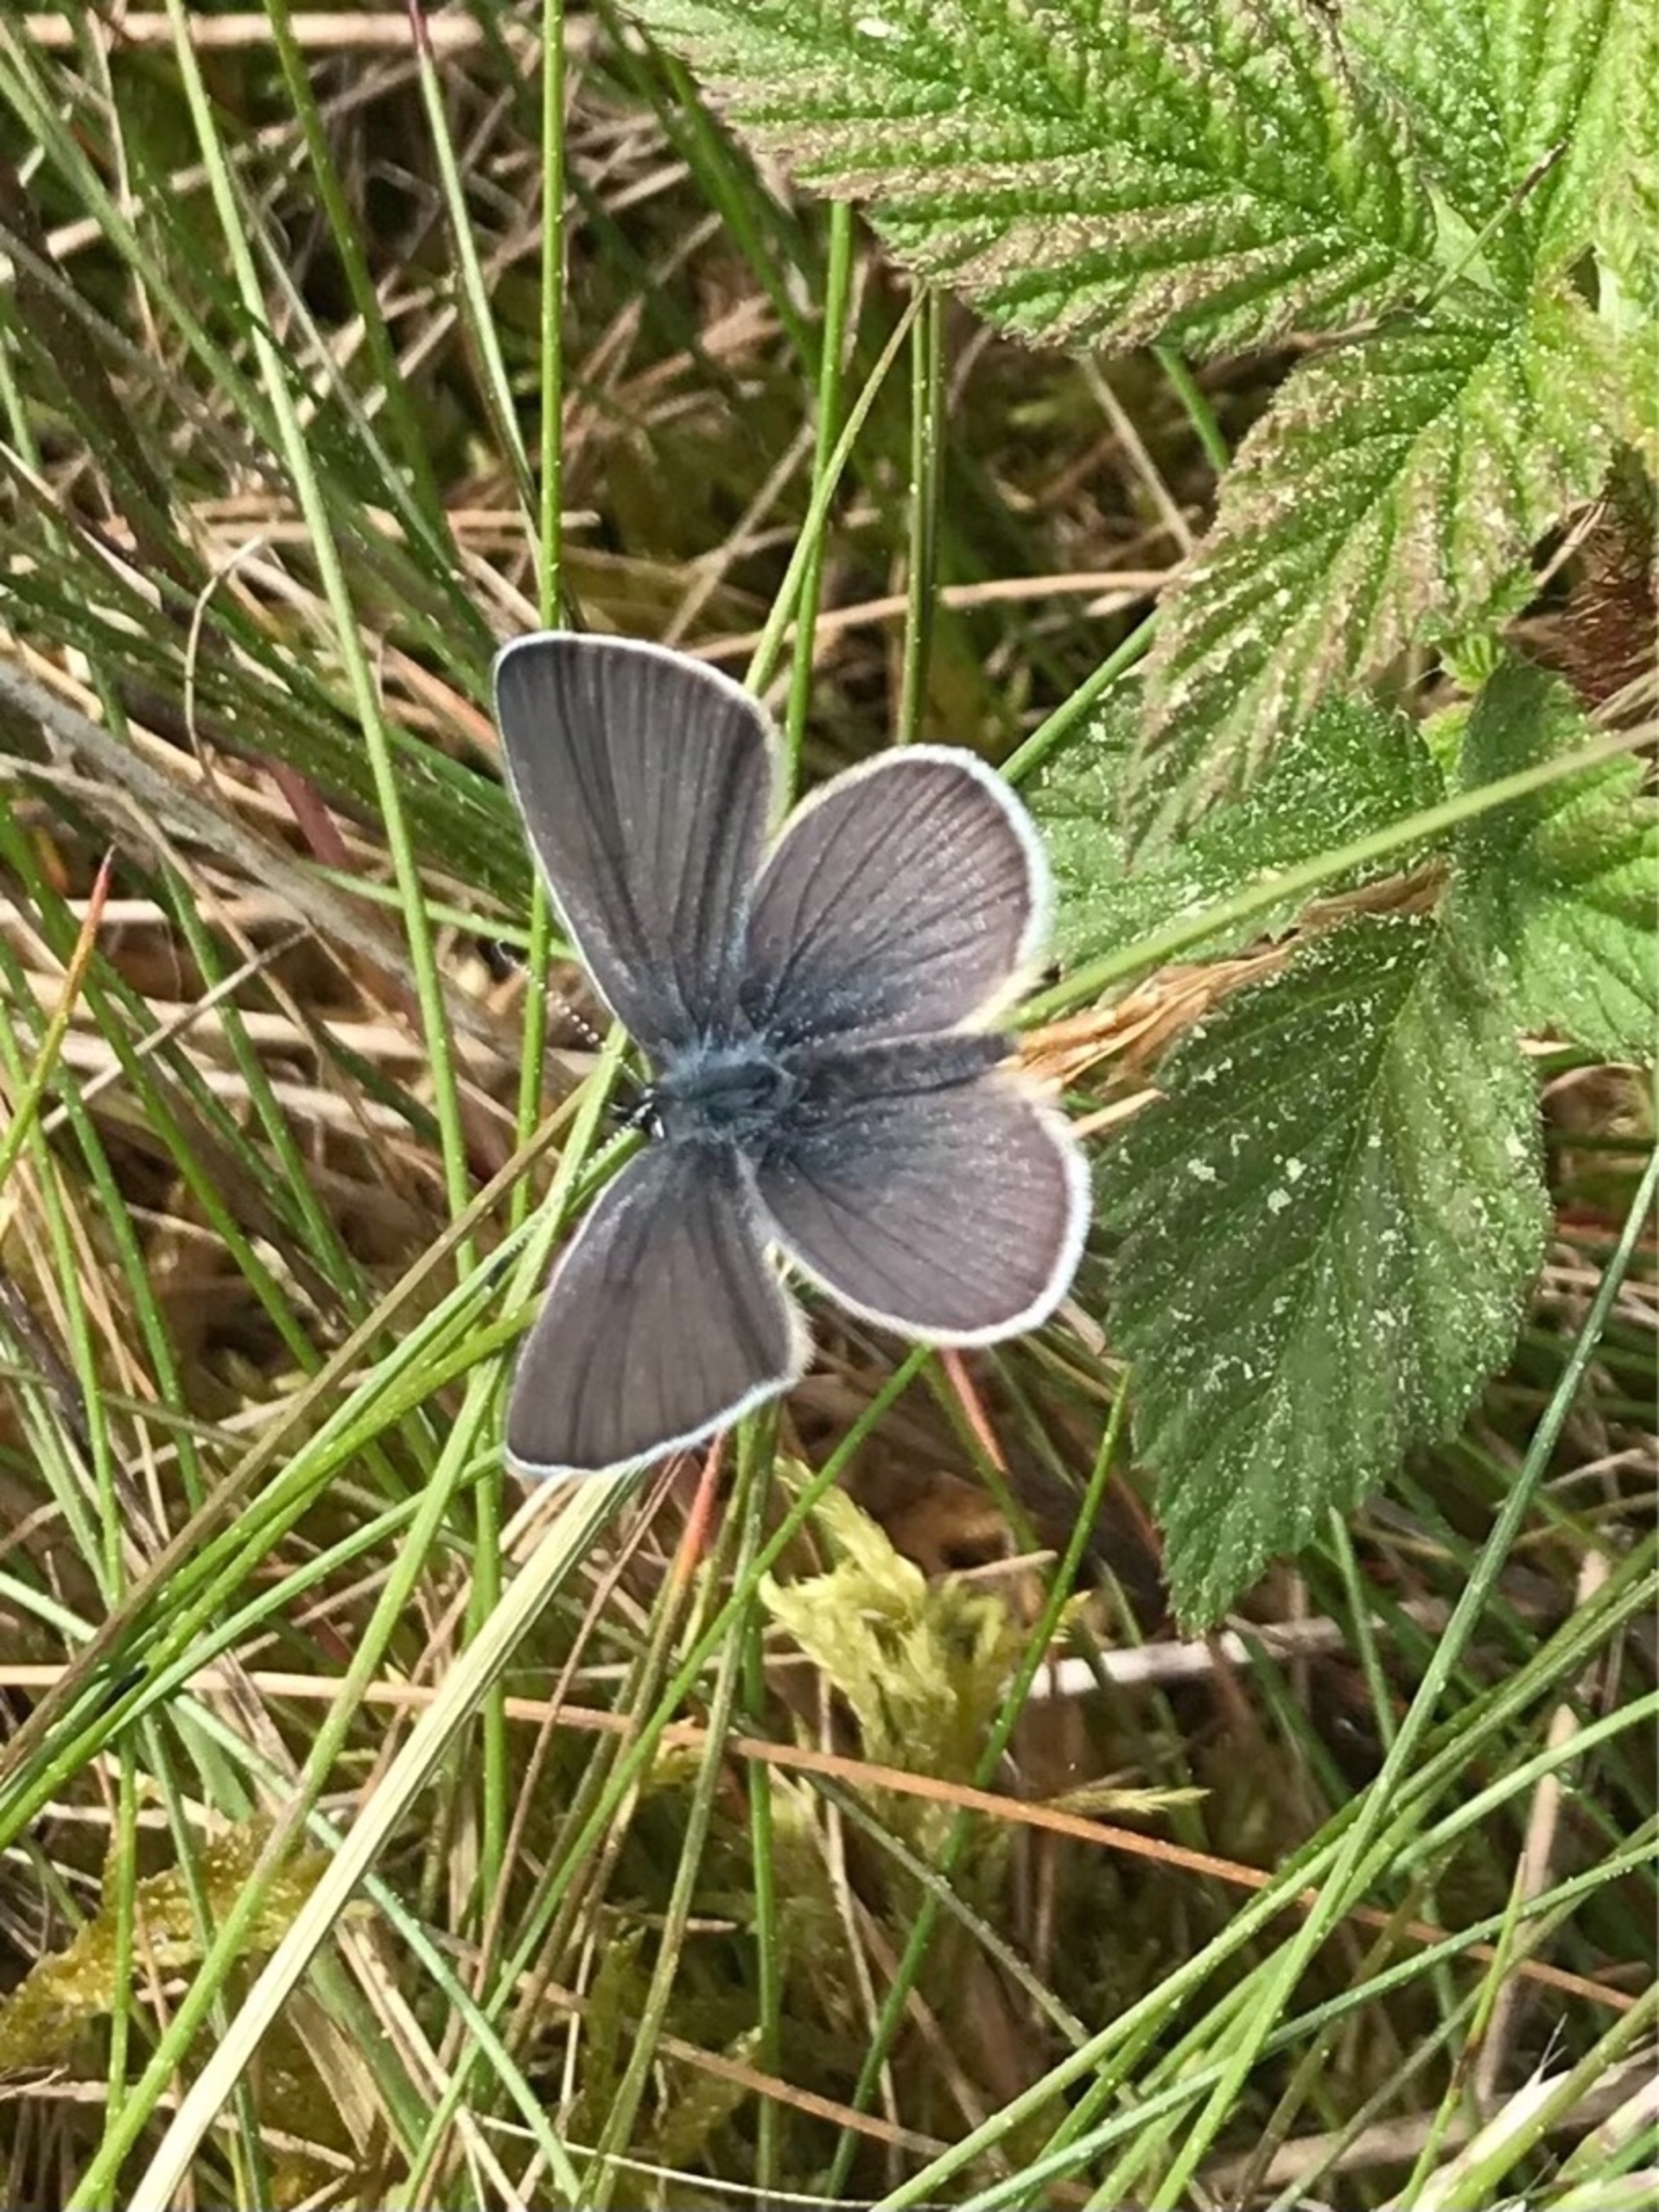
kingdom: Animalia
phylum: Arthropoda
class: Insecta
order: Lepidoptera
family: Lycaenidae
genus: Cupido
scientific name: Cupido minimus
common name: Dværgblåfugl
